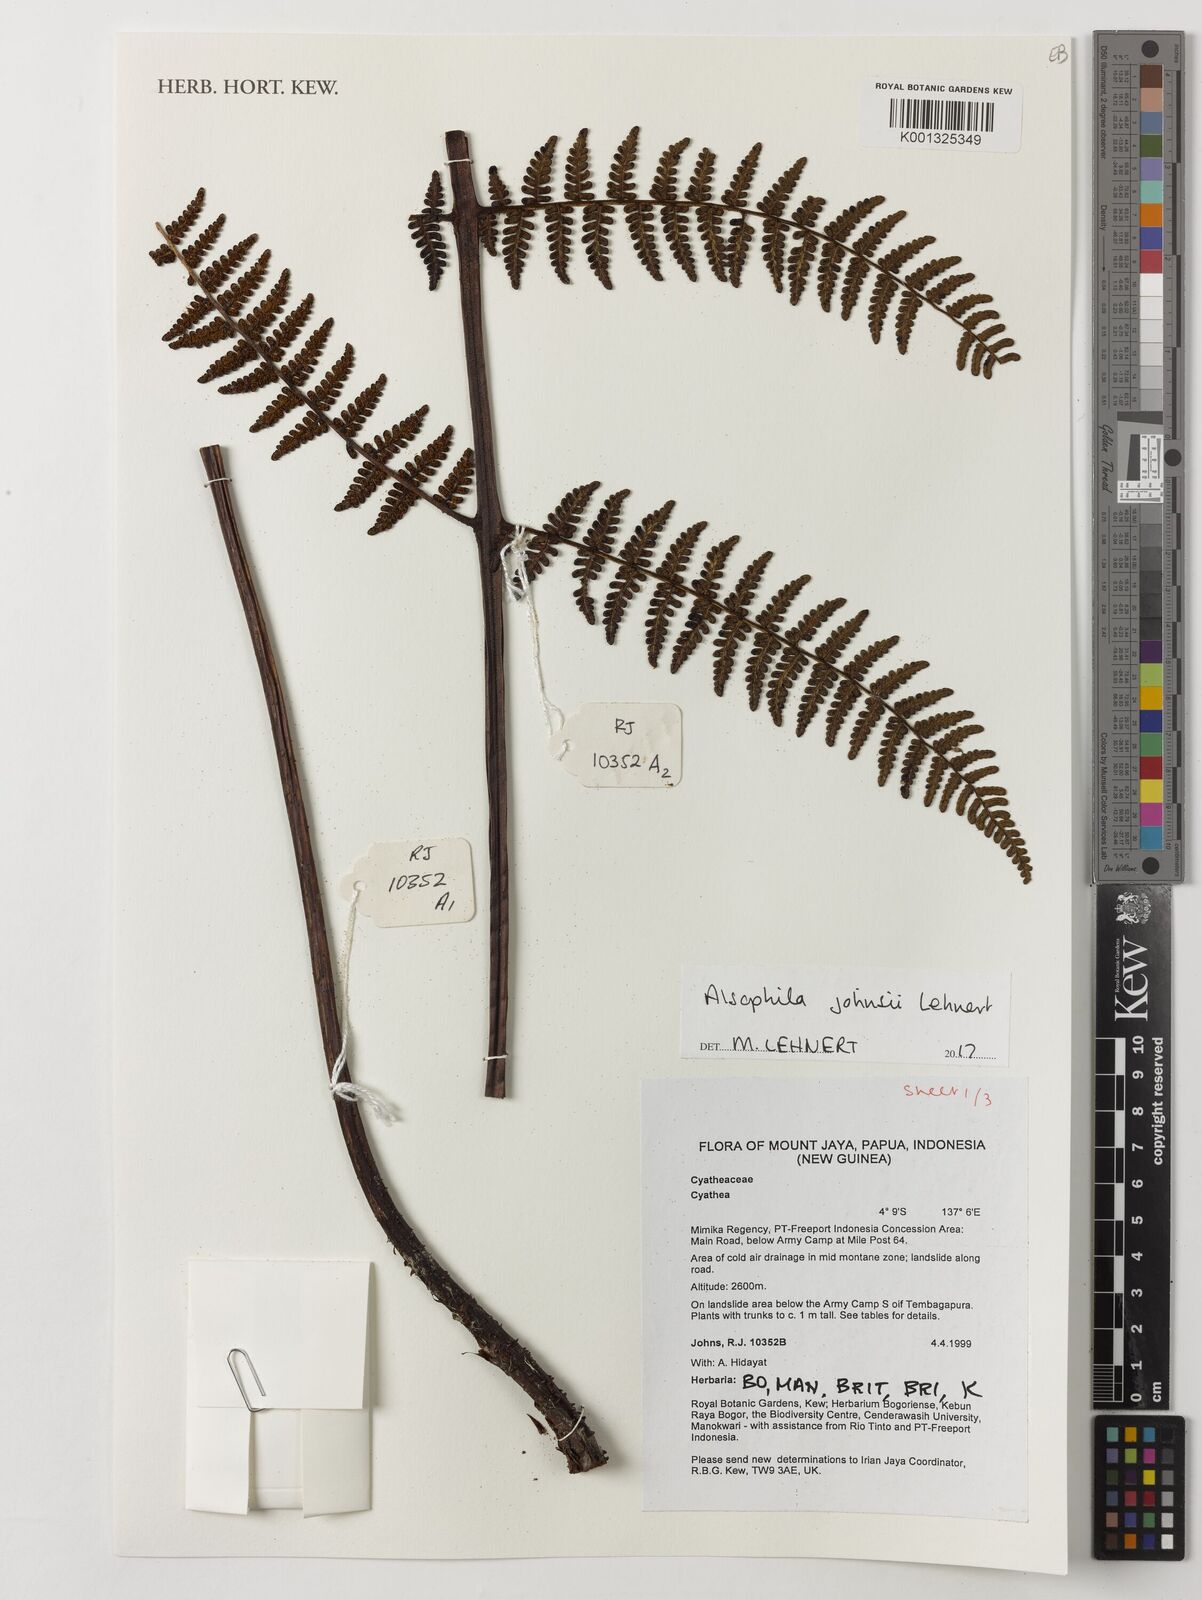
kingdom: Plantae
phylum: Tracheophyta
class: Polypodiopsida
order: Cyatheales
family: Cyatheaceae
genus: Alsophila
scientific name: Alsophila johnsii
